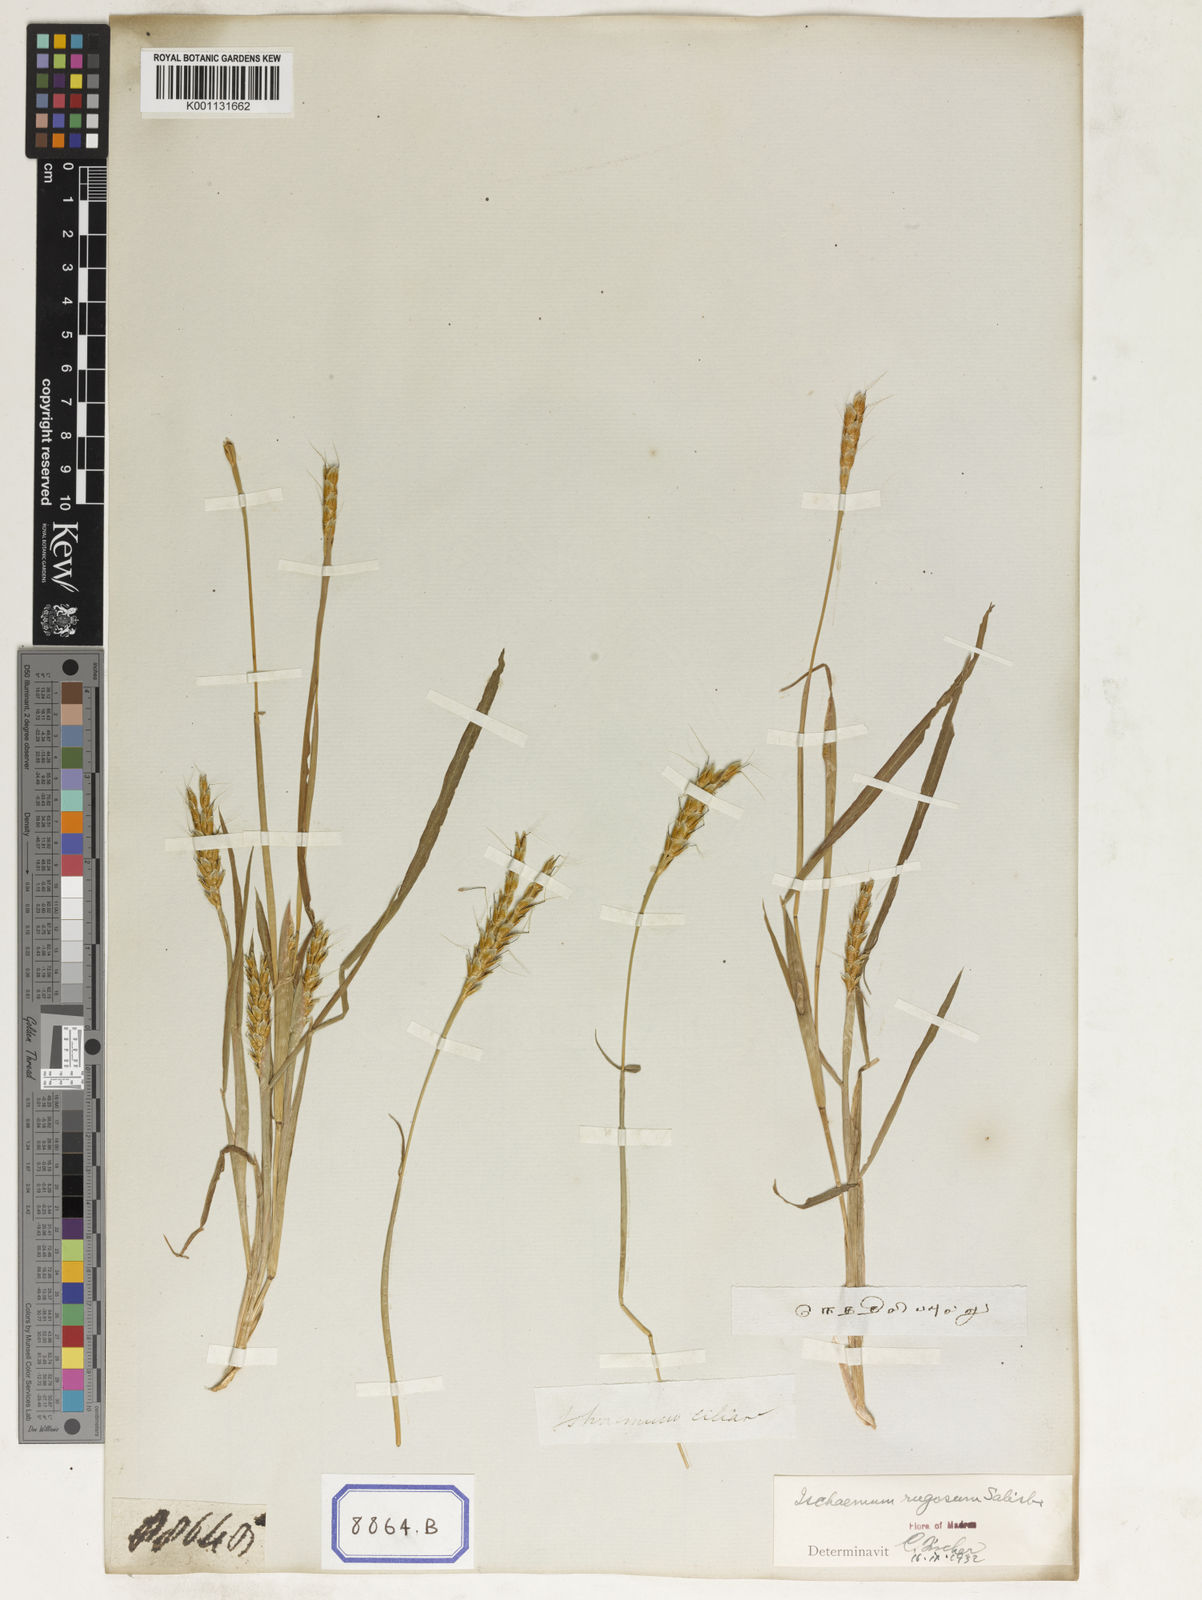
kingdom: Plantae
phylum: Tracheophyta
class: Liliopsida
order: Poales
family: Poaceae
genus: Ischaemum
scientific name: Ischaemum rugosum
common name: Saramatta grass
